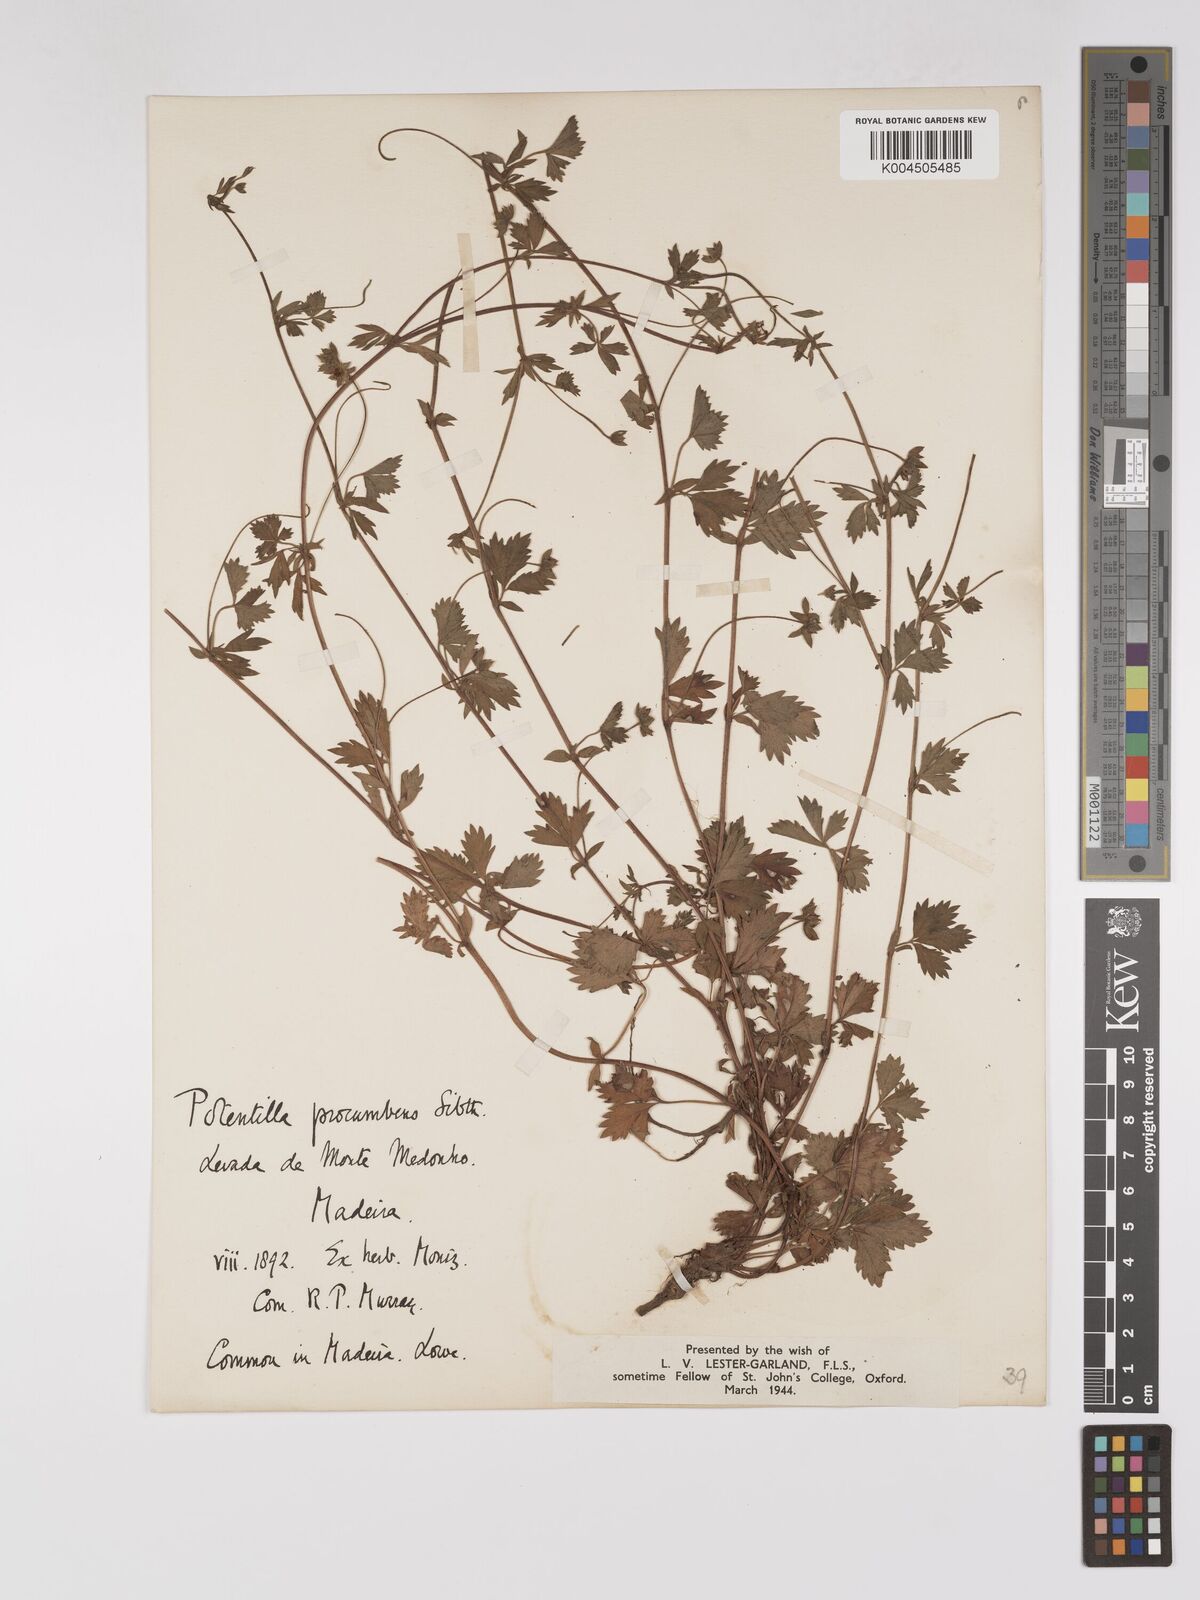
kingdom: Plantae
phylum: Tracheophyta
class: Magnoliopsida
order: Rosales
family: Rosaceae
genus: Potentilla
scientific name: Potentilla
